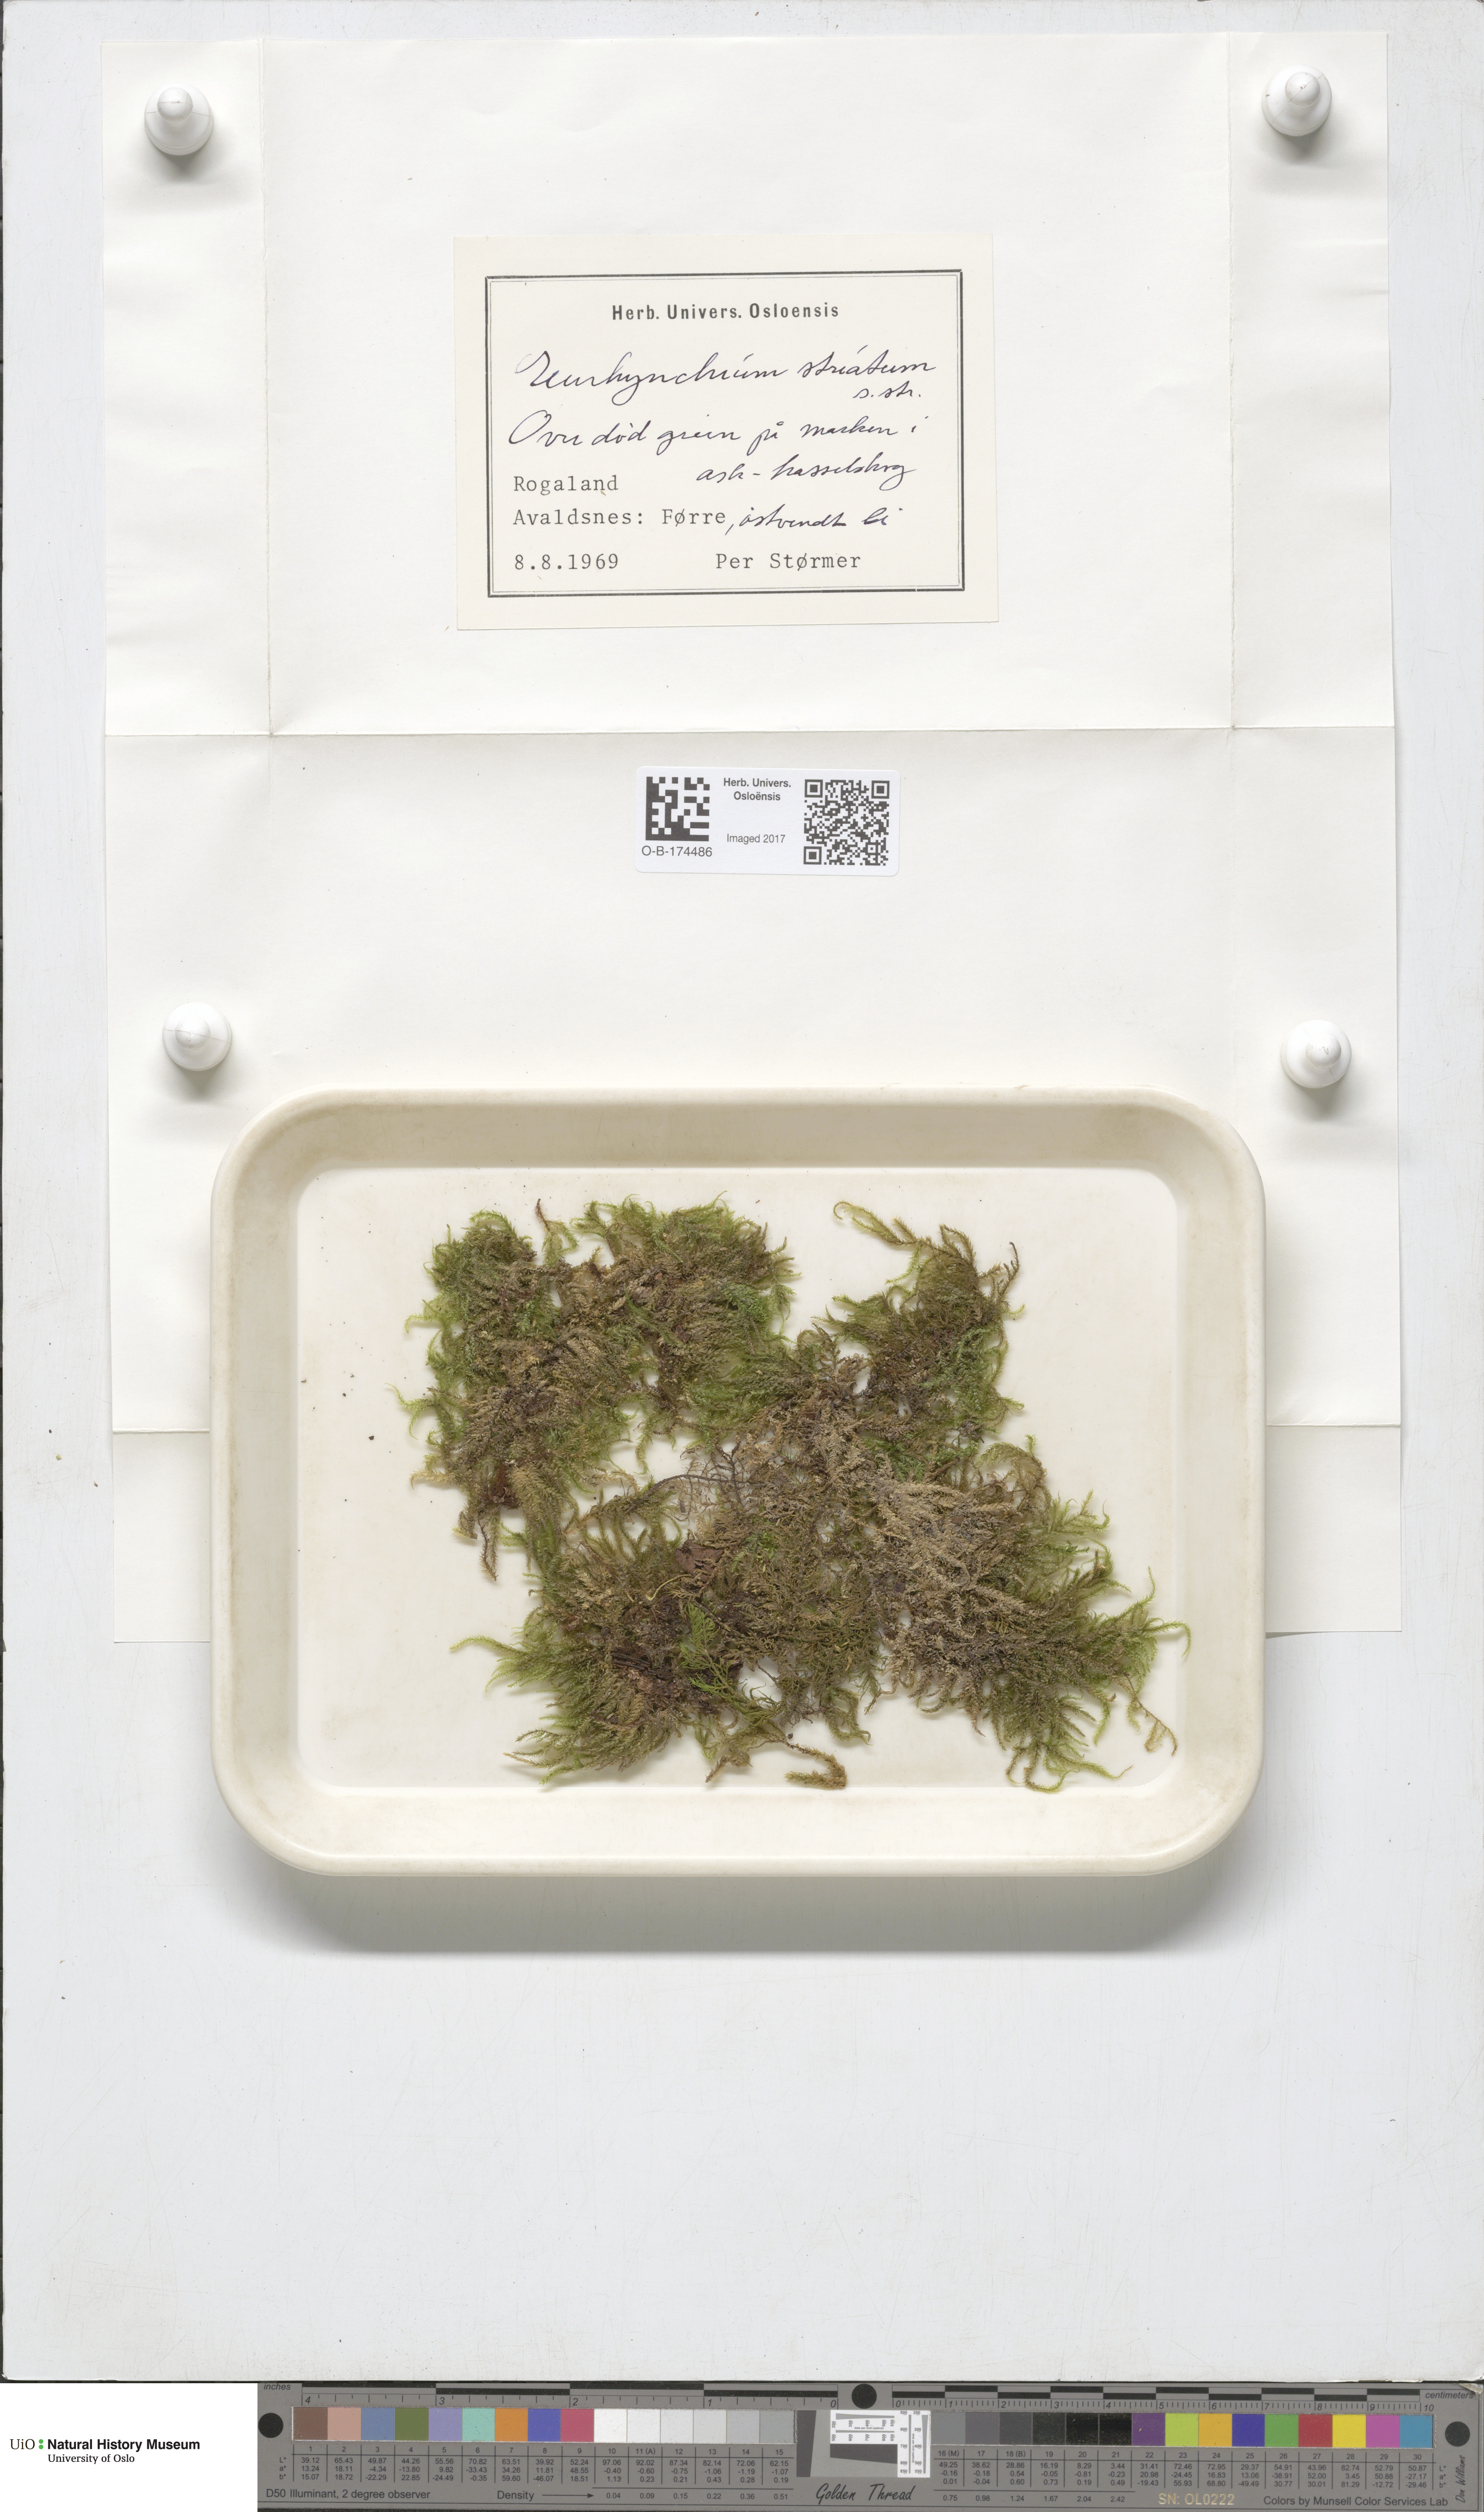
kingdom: Plantae
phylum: Bryophyta
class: Bryopsida
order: Hypnales
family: Brachytheciaceae
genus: Eurhynchium
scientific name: Eurhynchium striatum
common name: Common striated feather-moss
